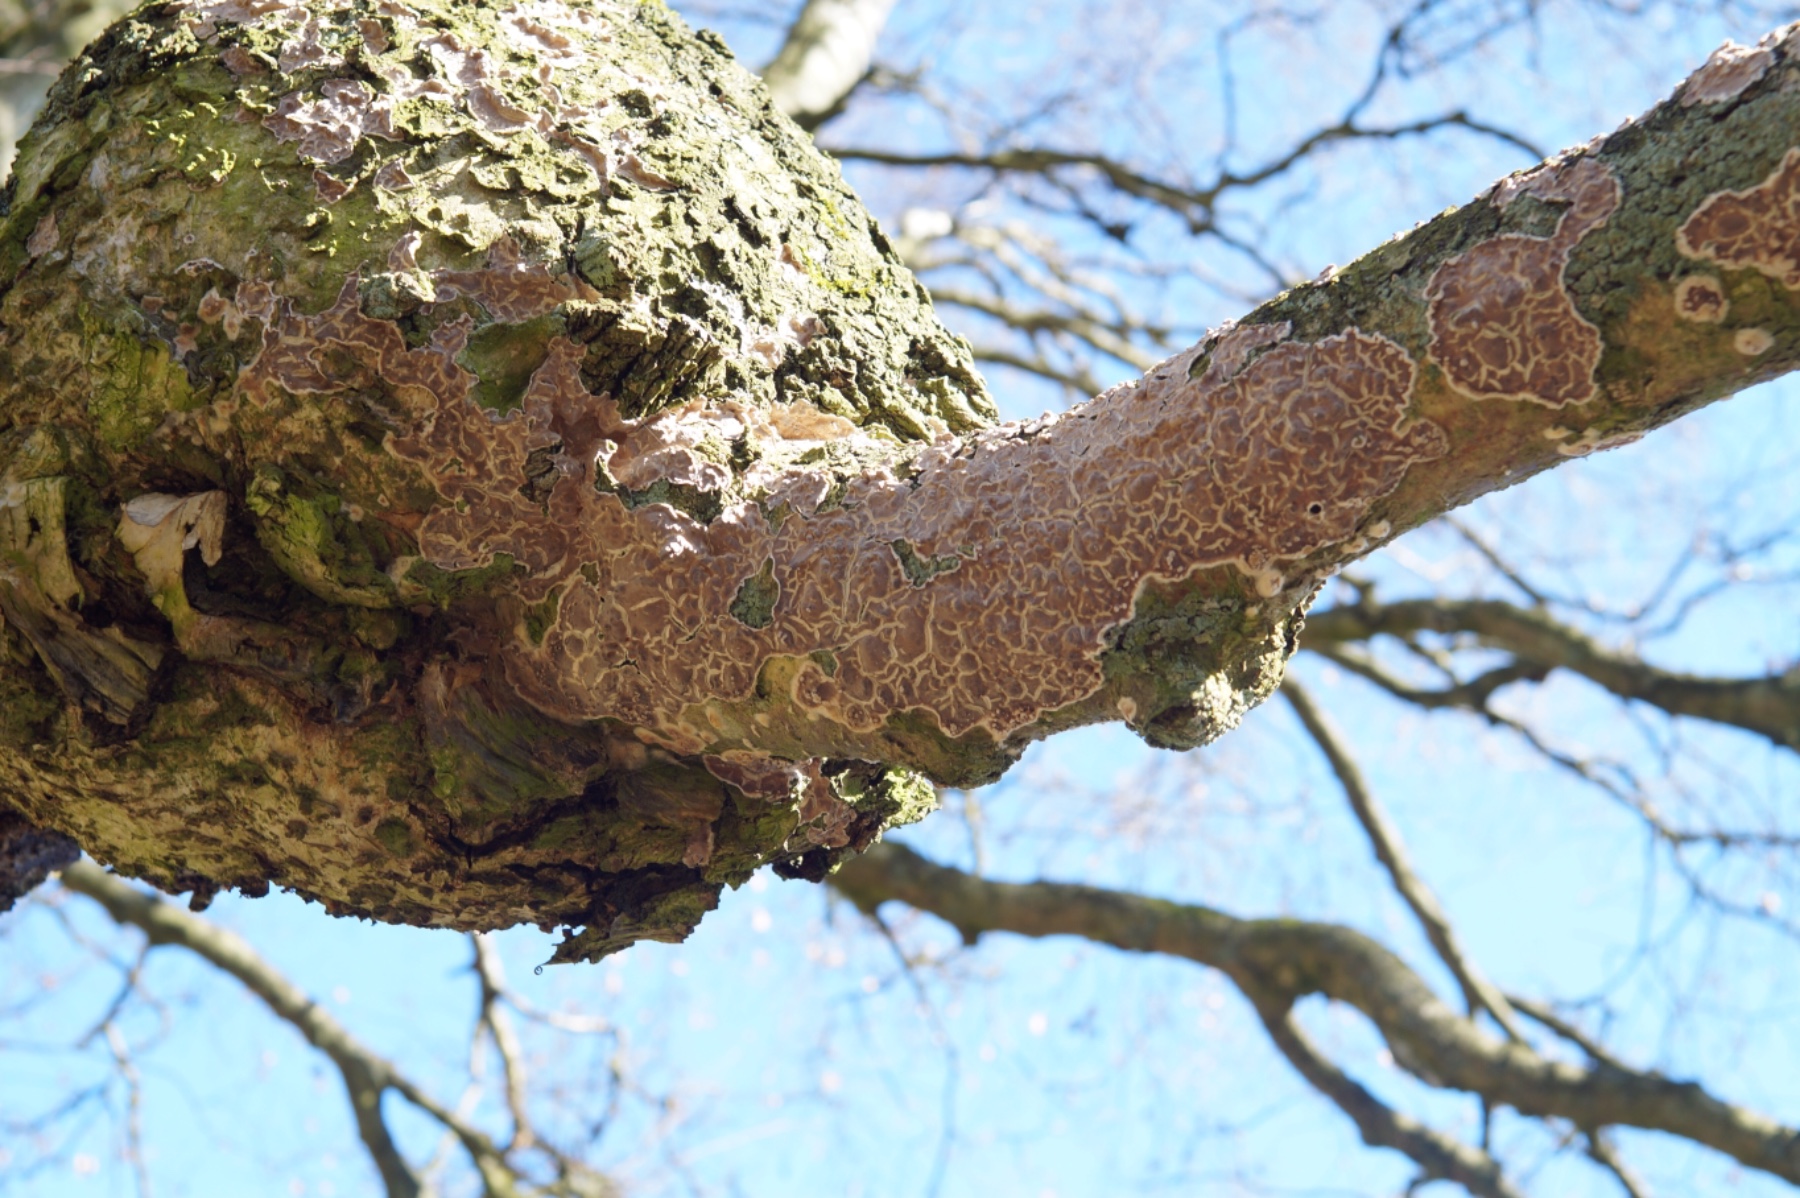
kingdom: Fungi
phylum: Basidiomycota
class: Agaricomycetes
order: Agaricales
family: Cyphellaceae
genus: Chondrostereum
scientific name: Chondrostereum purpureum
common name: purpurlædersvamp
